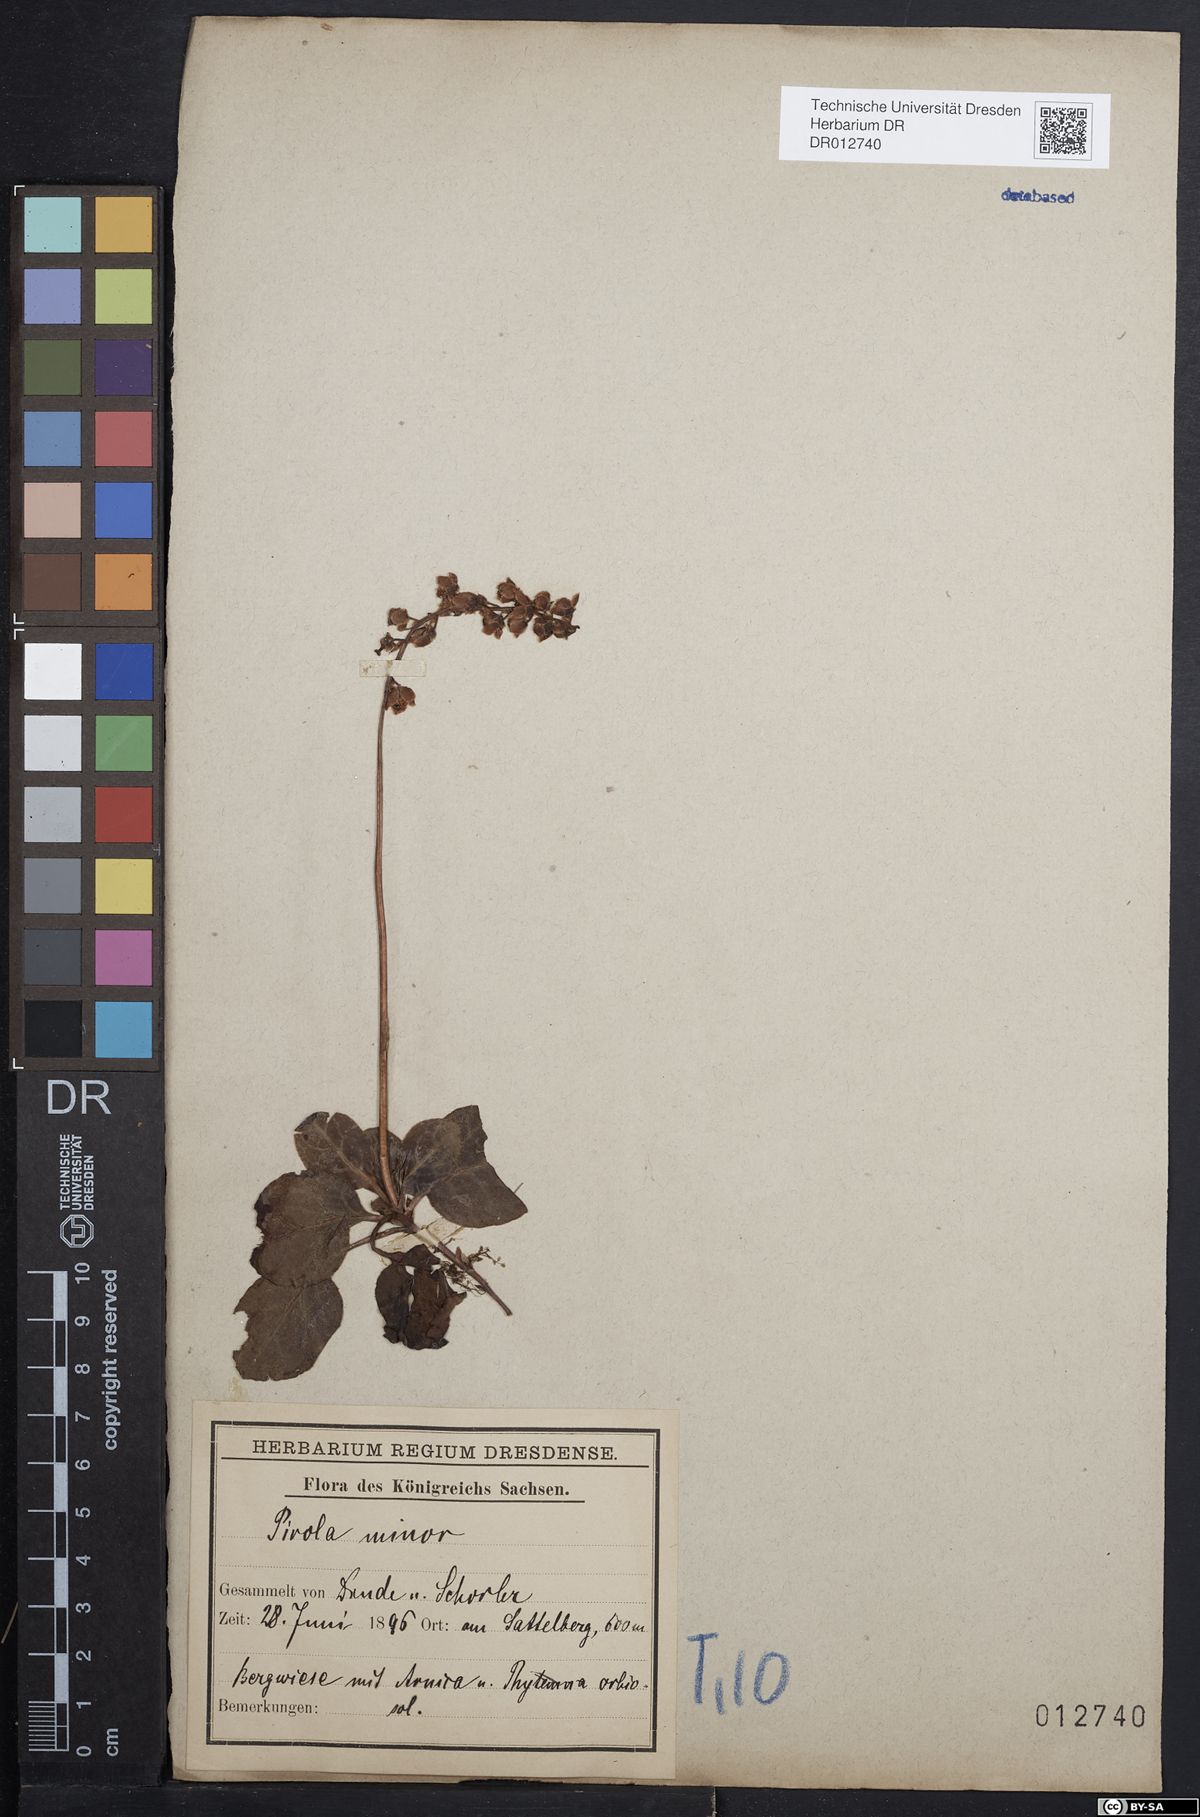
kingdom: Plantae
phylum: Tracheophyta
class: Magnoliopsida
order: Ericales
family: Ericaceae
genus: Pyrola
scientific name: Pyrola minor
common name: Common wintergreen
